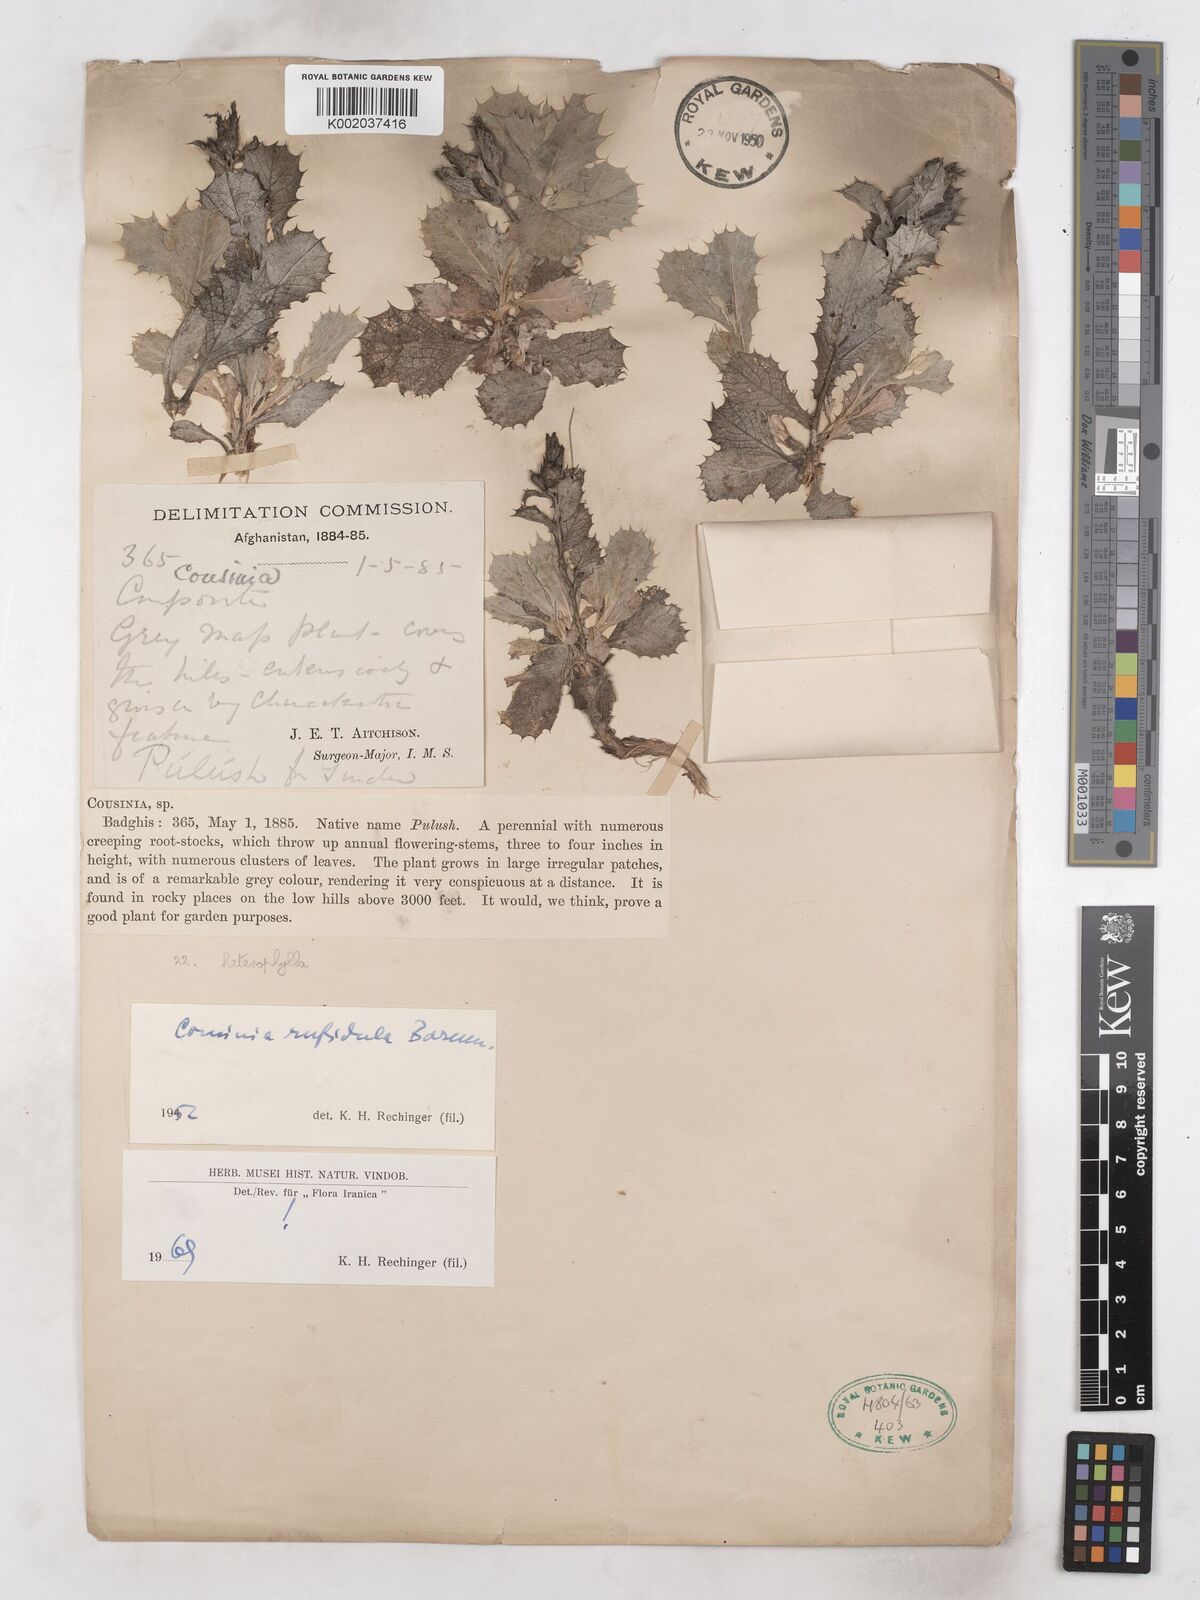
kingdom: Plantae
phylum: Tracheophyta
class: Magnoliopsida
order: Asterales
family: Asteraceae
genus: Cousinia
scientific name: Cousinia rufidula
